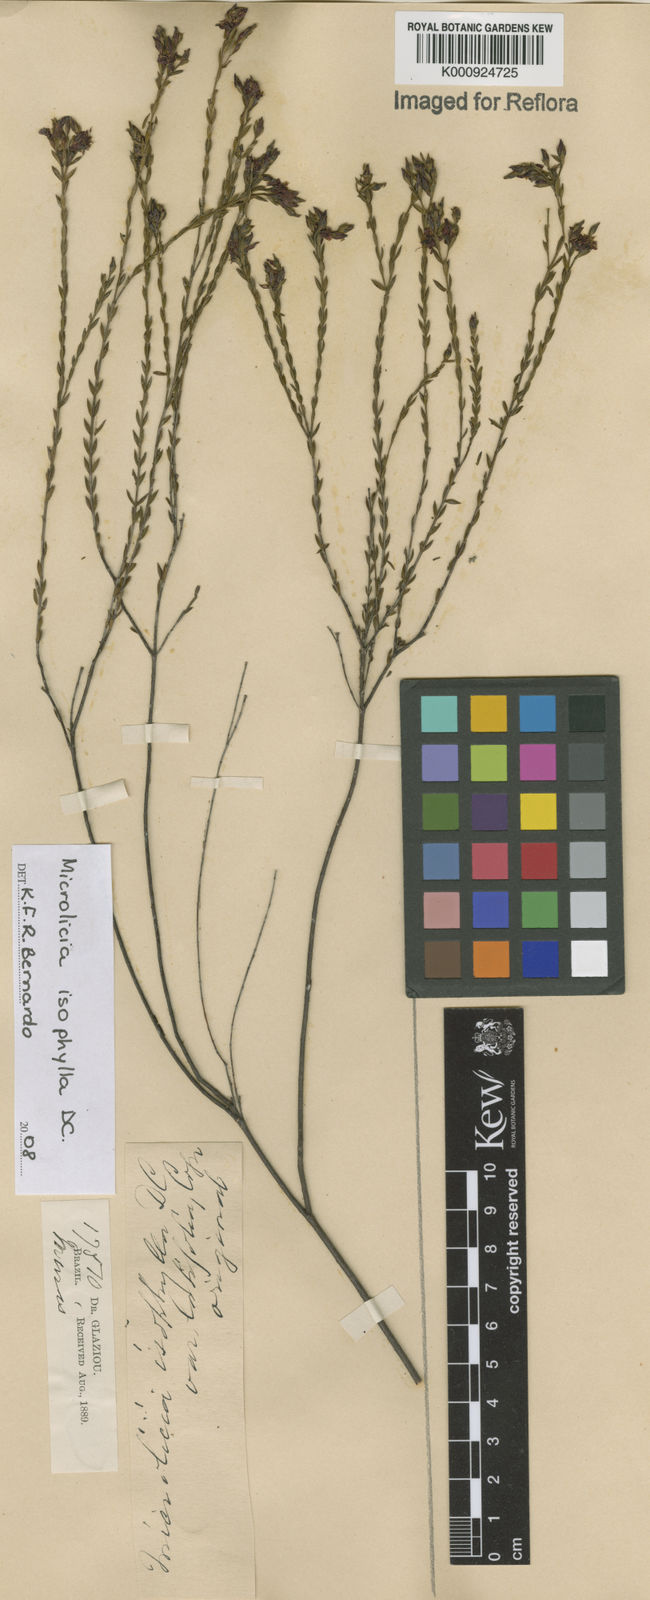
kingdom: Plantae
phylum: Tracheophyta
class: Magnoliopsida
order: Myrtales
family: Melastomataceae
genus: Microlicia
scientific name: Microlicia isophylla
